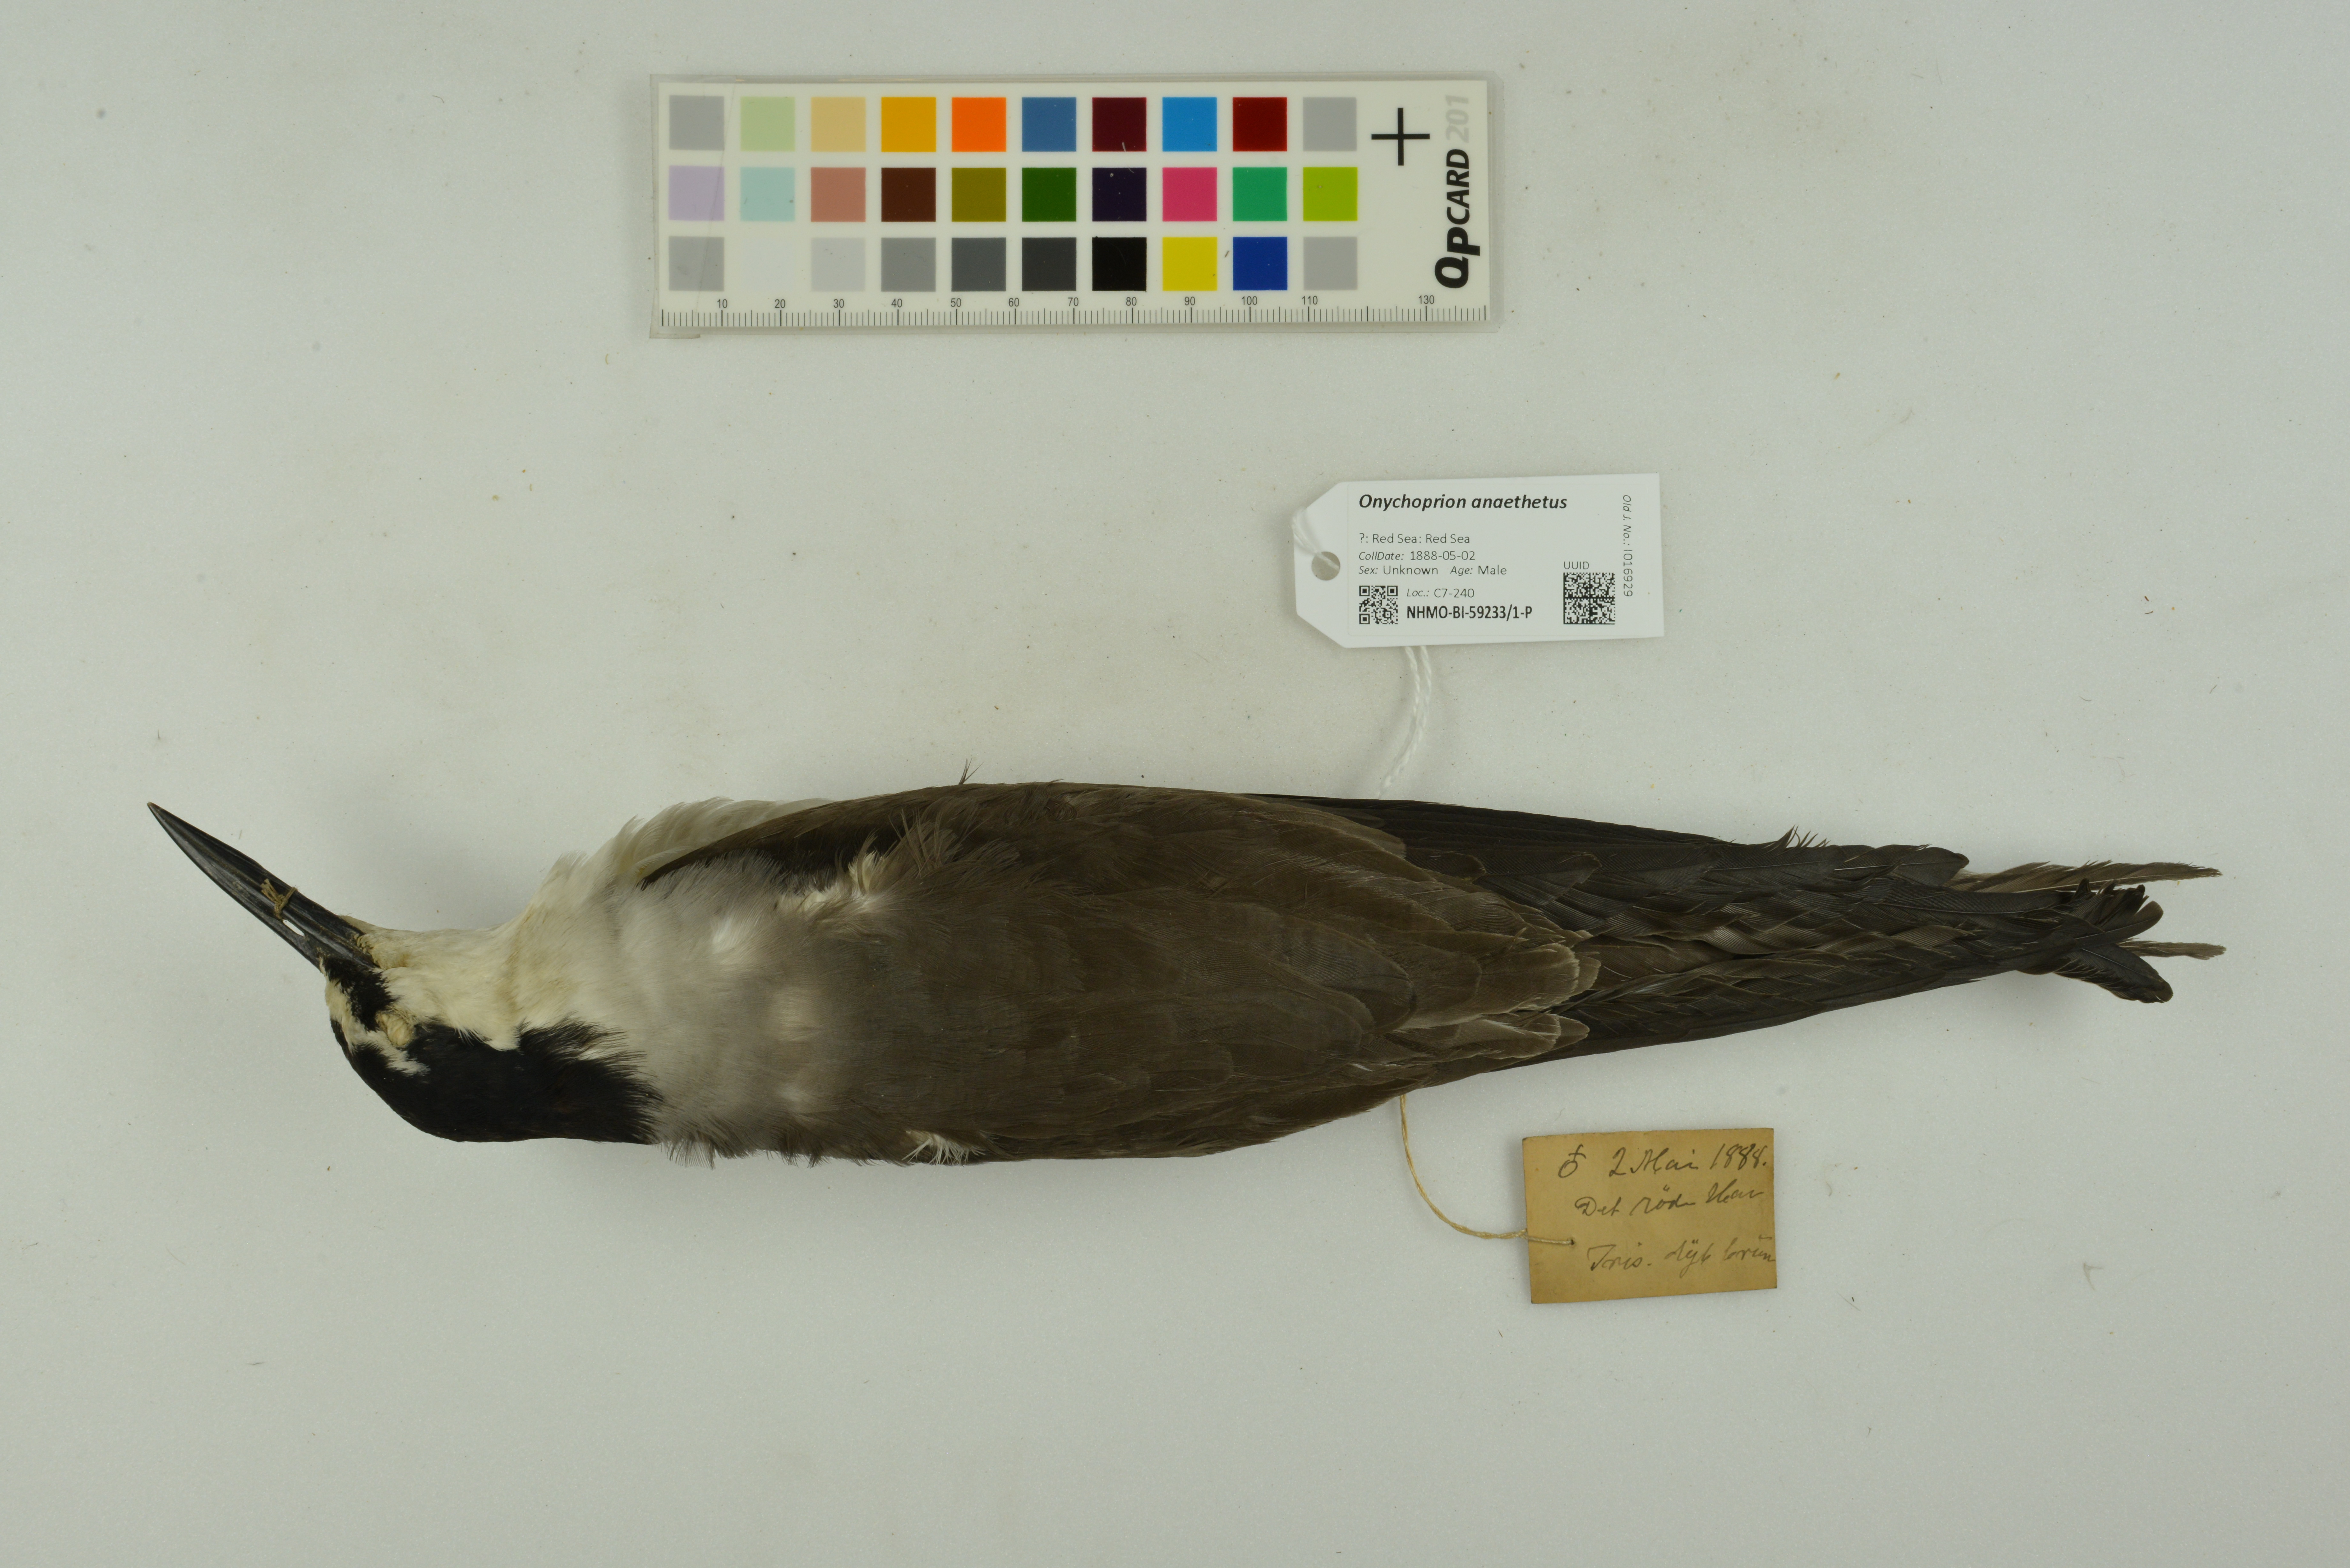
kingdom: Animalia
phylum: Chordata
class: Aves
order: Charadriiformes
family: Laridae
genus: Onychoprion
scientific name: Onychoprion anaethetus
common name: Bridled tern
